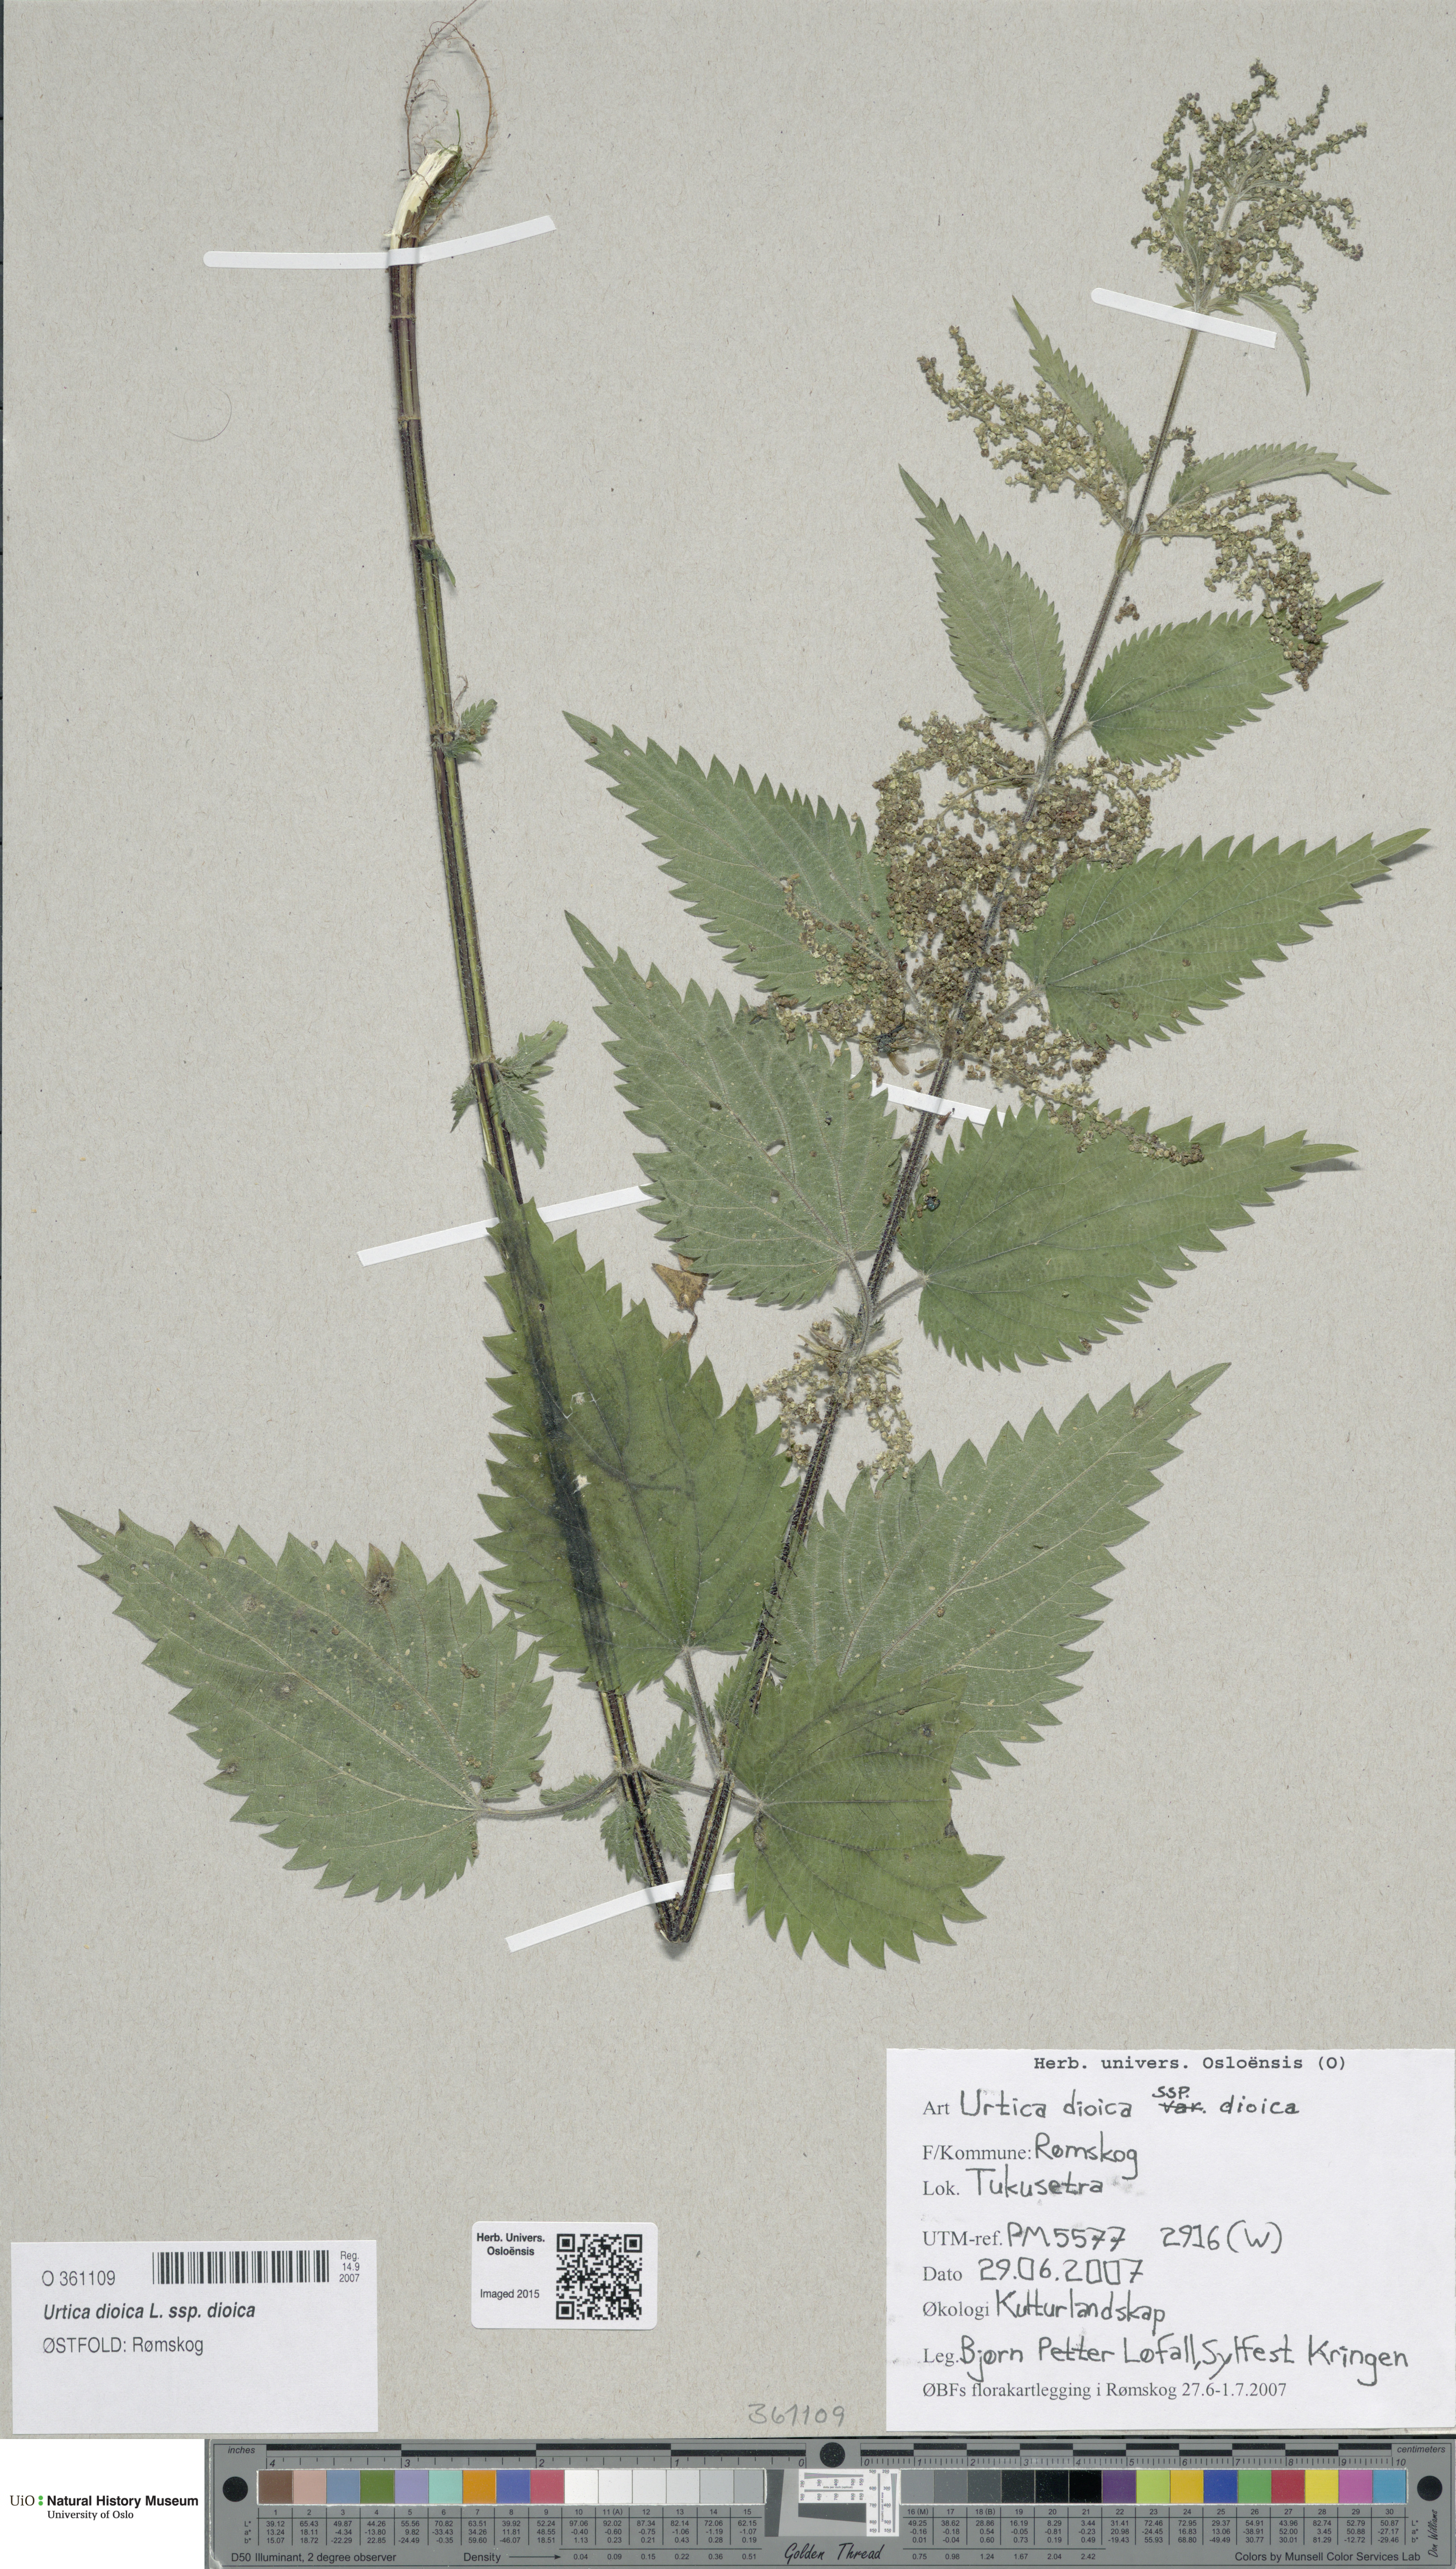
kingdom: Plantae
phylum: Tracheophyta
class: Magnoliopsida
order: Rosales
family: Urticaceae
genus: Urtica
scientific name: Urtica dioica
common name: Common nettle
